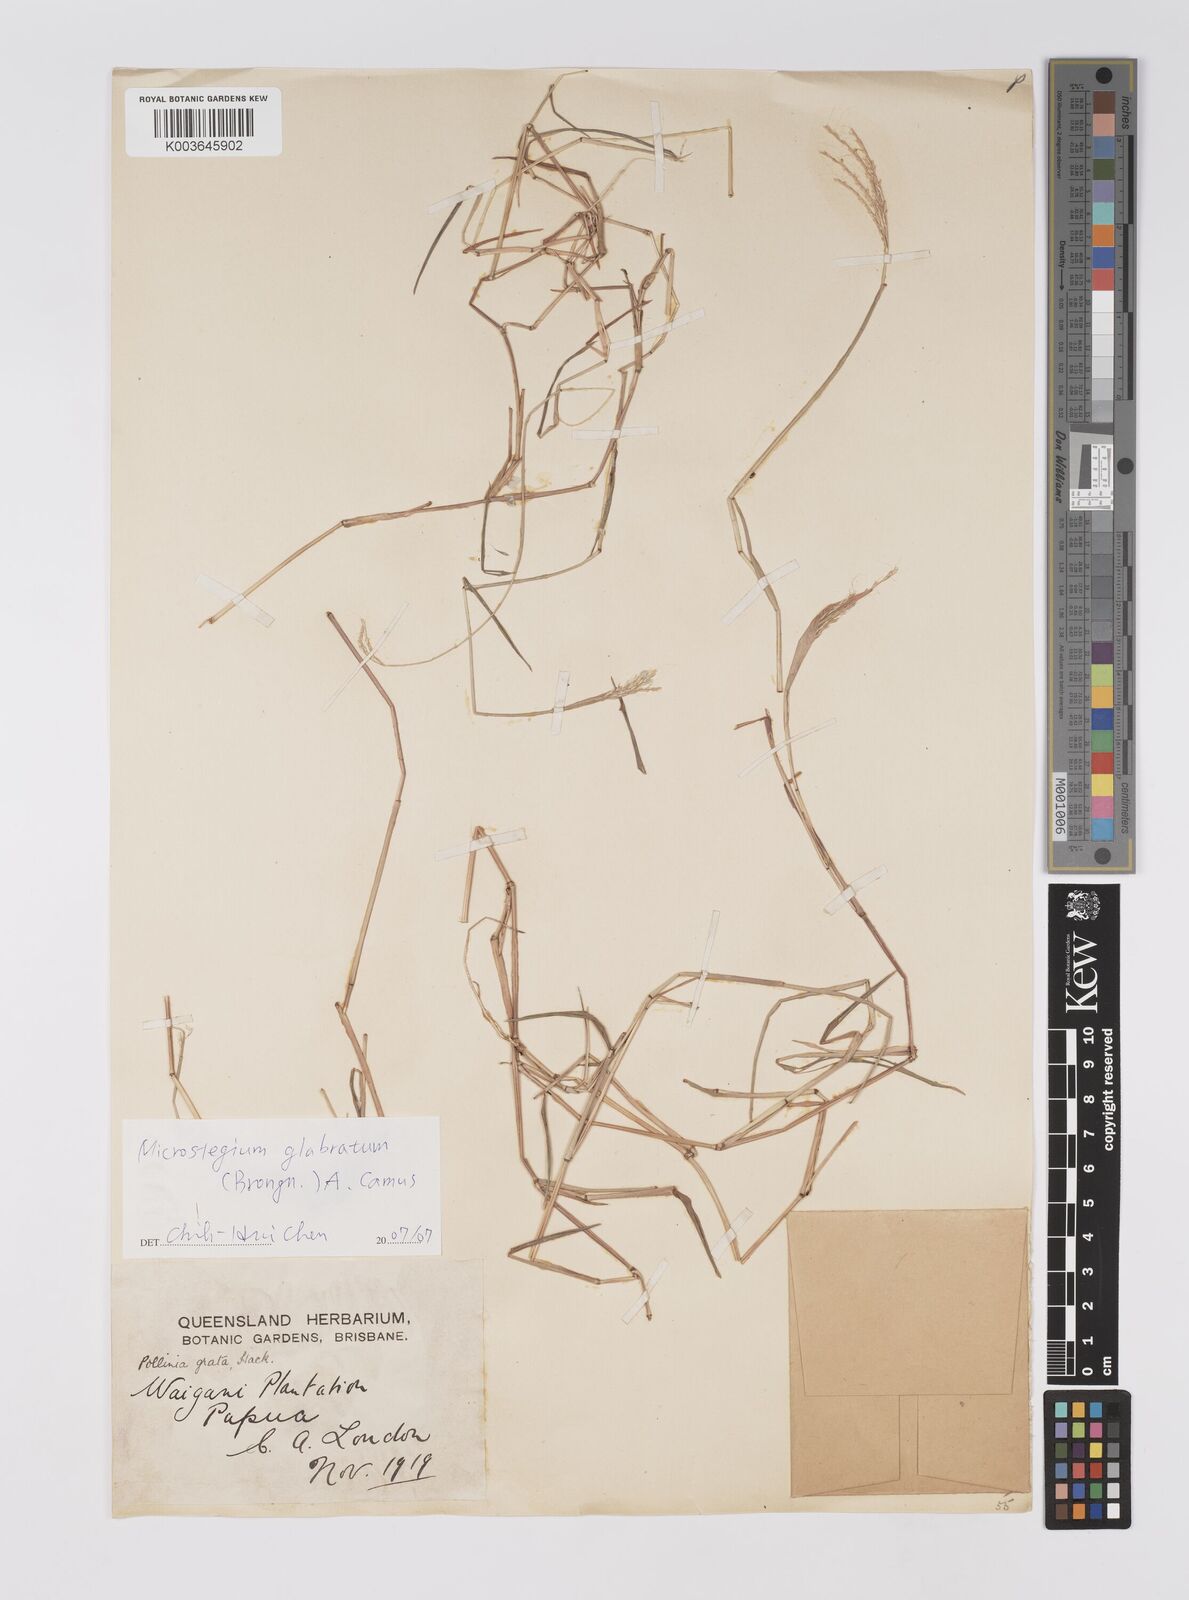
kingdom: Plantae
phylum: Tracheophyta
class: Liliopsida
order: Poales
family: Poaceae
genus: Microstegium
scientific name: Microstegium glabratum
